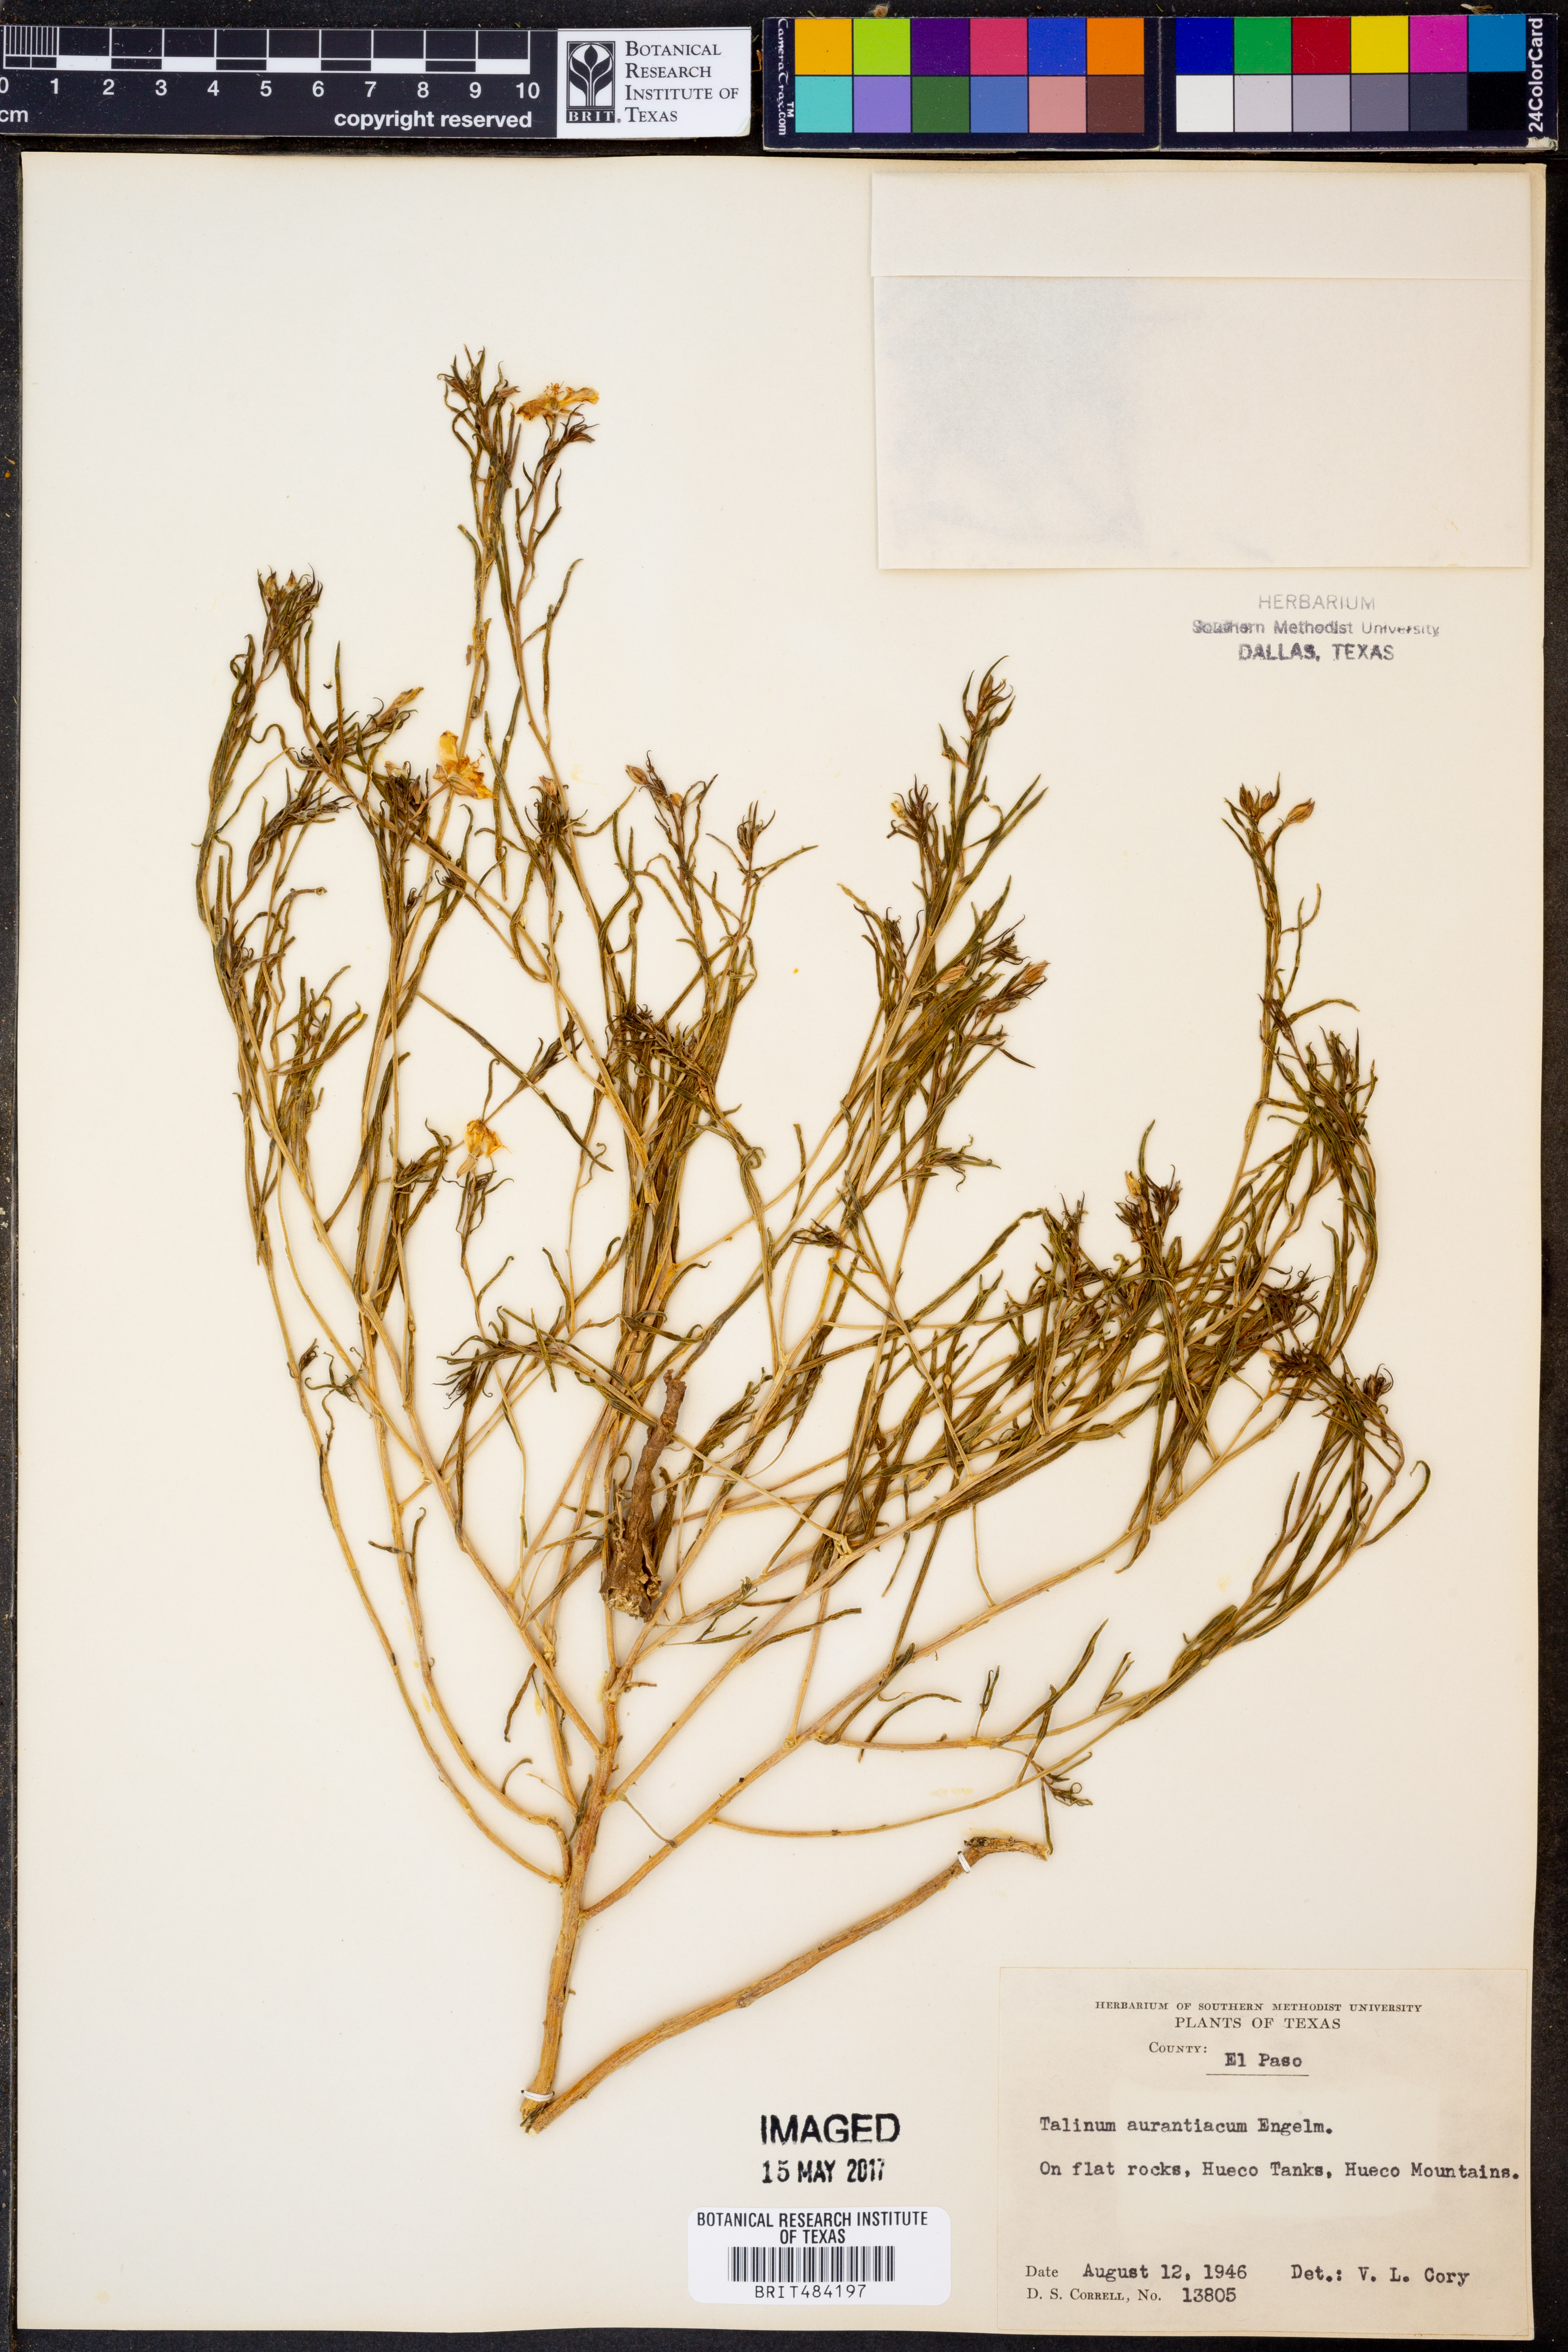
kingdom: Plantae
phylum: Tracheophyta
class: Magnoliopsida
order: Caryophyllales
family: Montiaceae
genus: Phemeranthus
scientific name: Phemeranthus aurantiacus
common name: Orange fameflower
